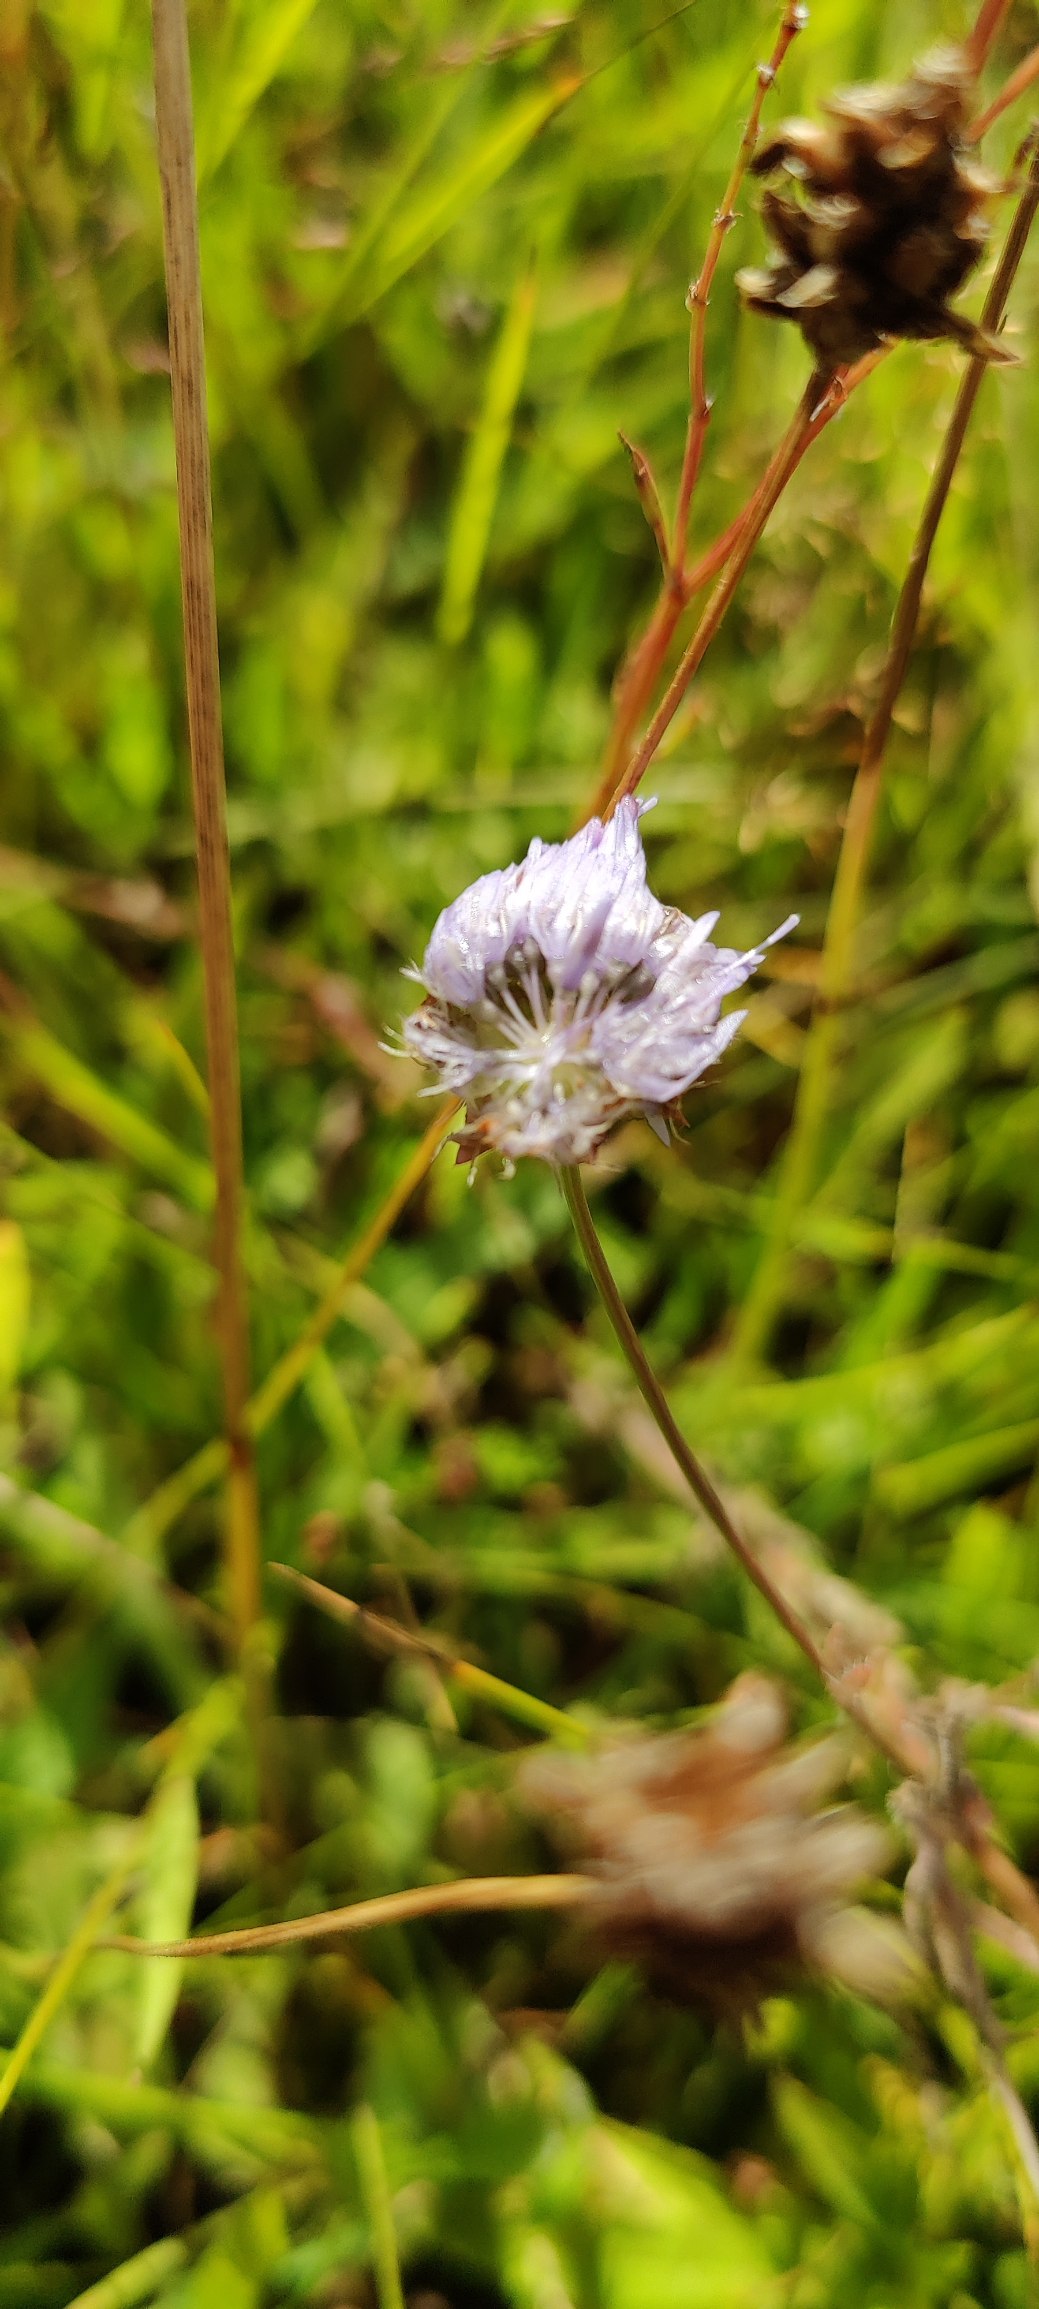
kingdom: Plantae
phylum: Tracheophyta
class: Magnoliopsida
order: Asterales
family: Campanulaceae
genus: Jasione
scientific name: Jasione montana
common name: Blåmunke
